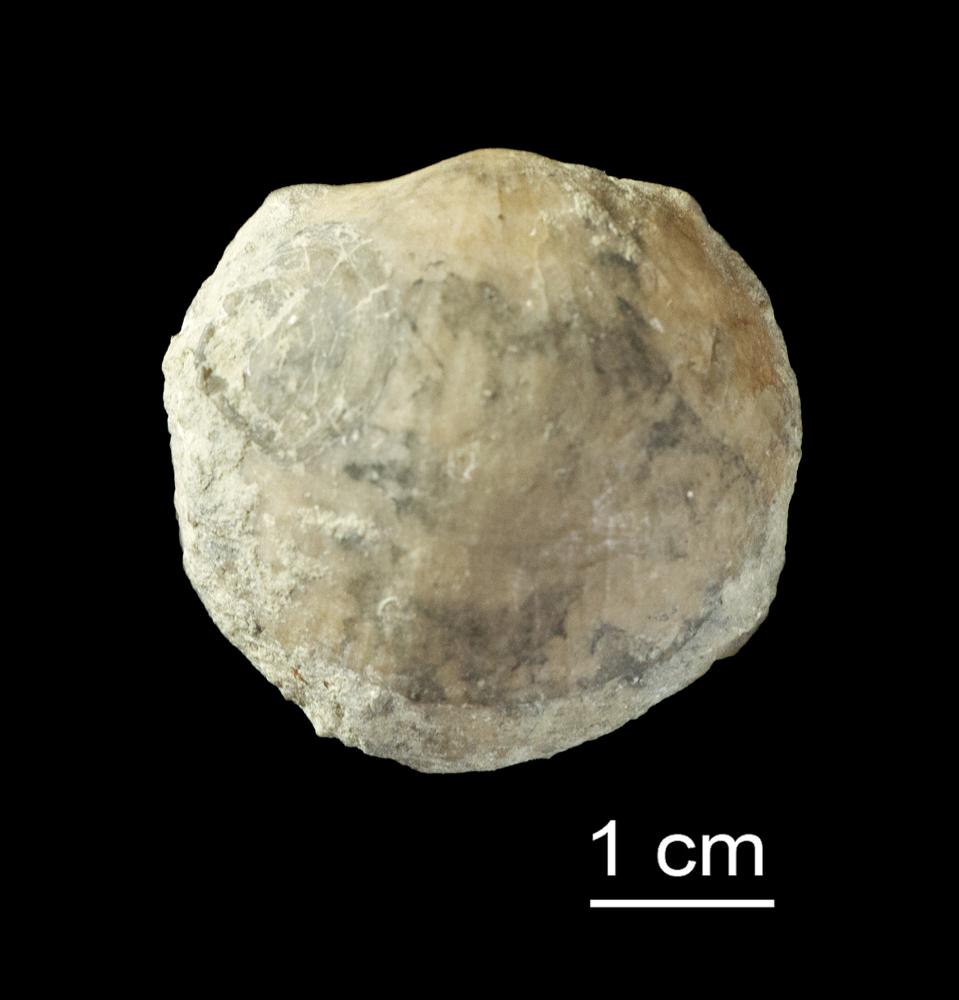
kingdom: Animalia
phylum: Brachiopoda
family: Strophomenidae
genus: Oepikina
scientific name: Oepikina
